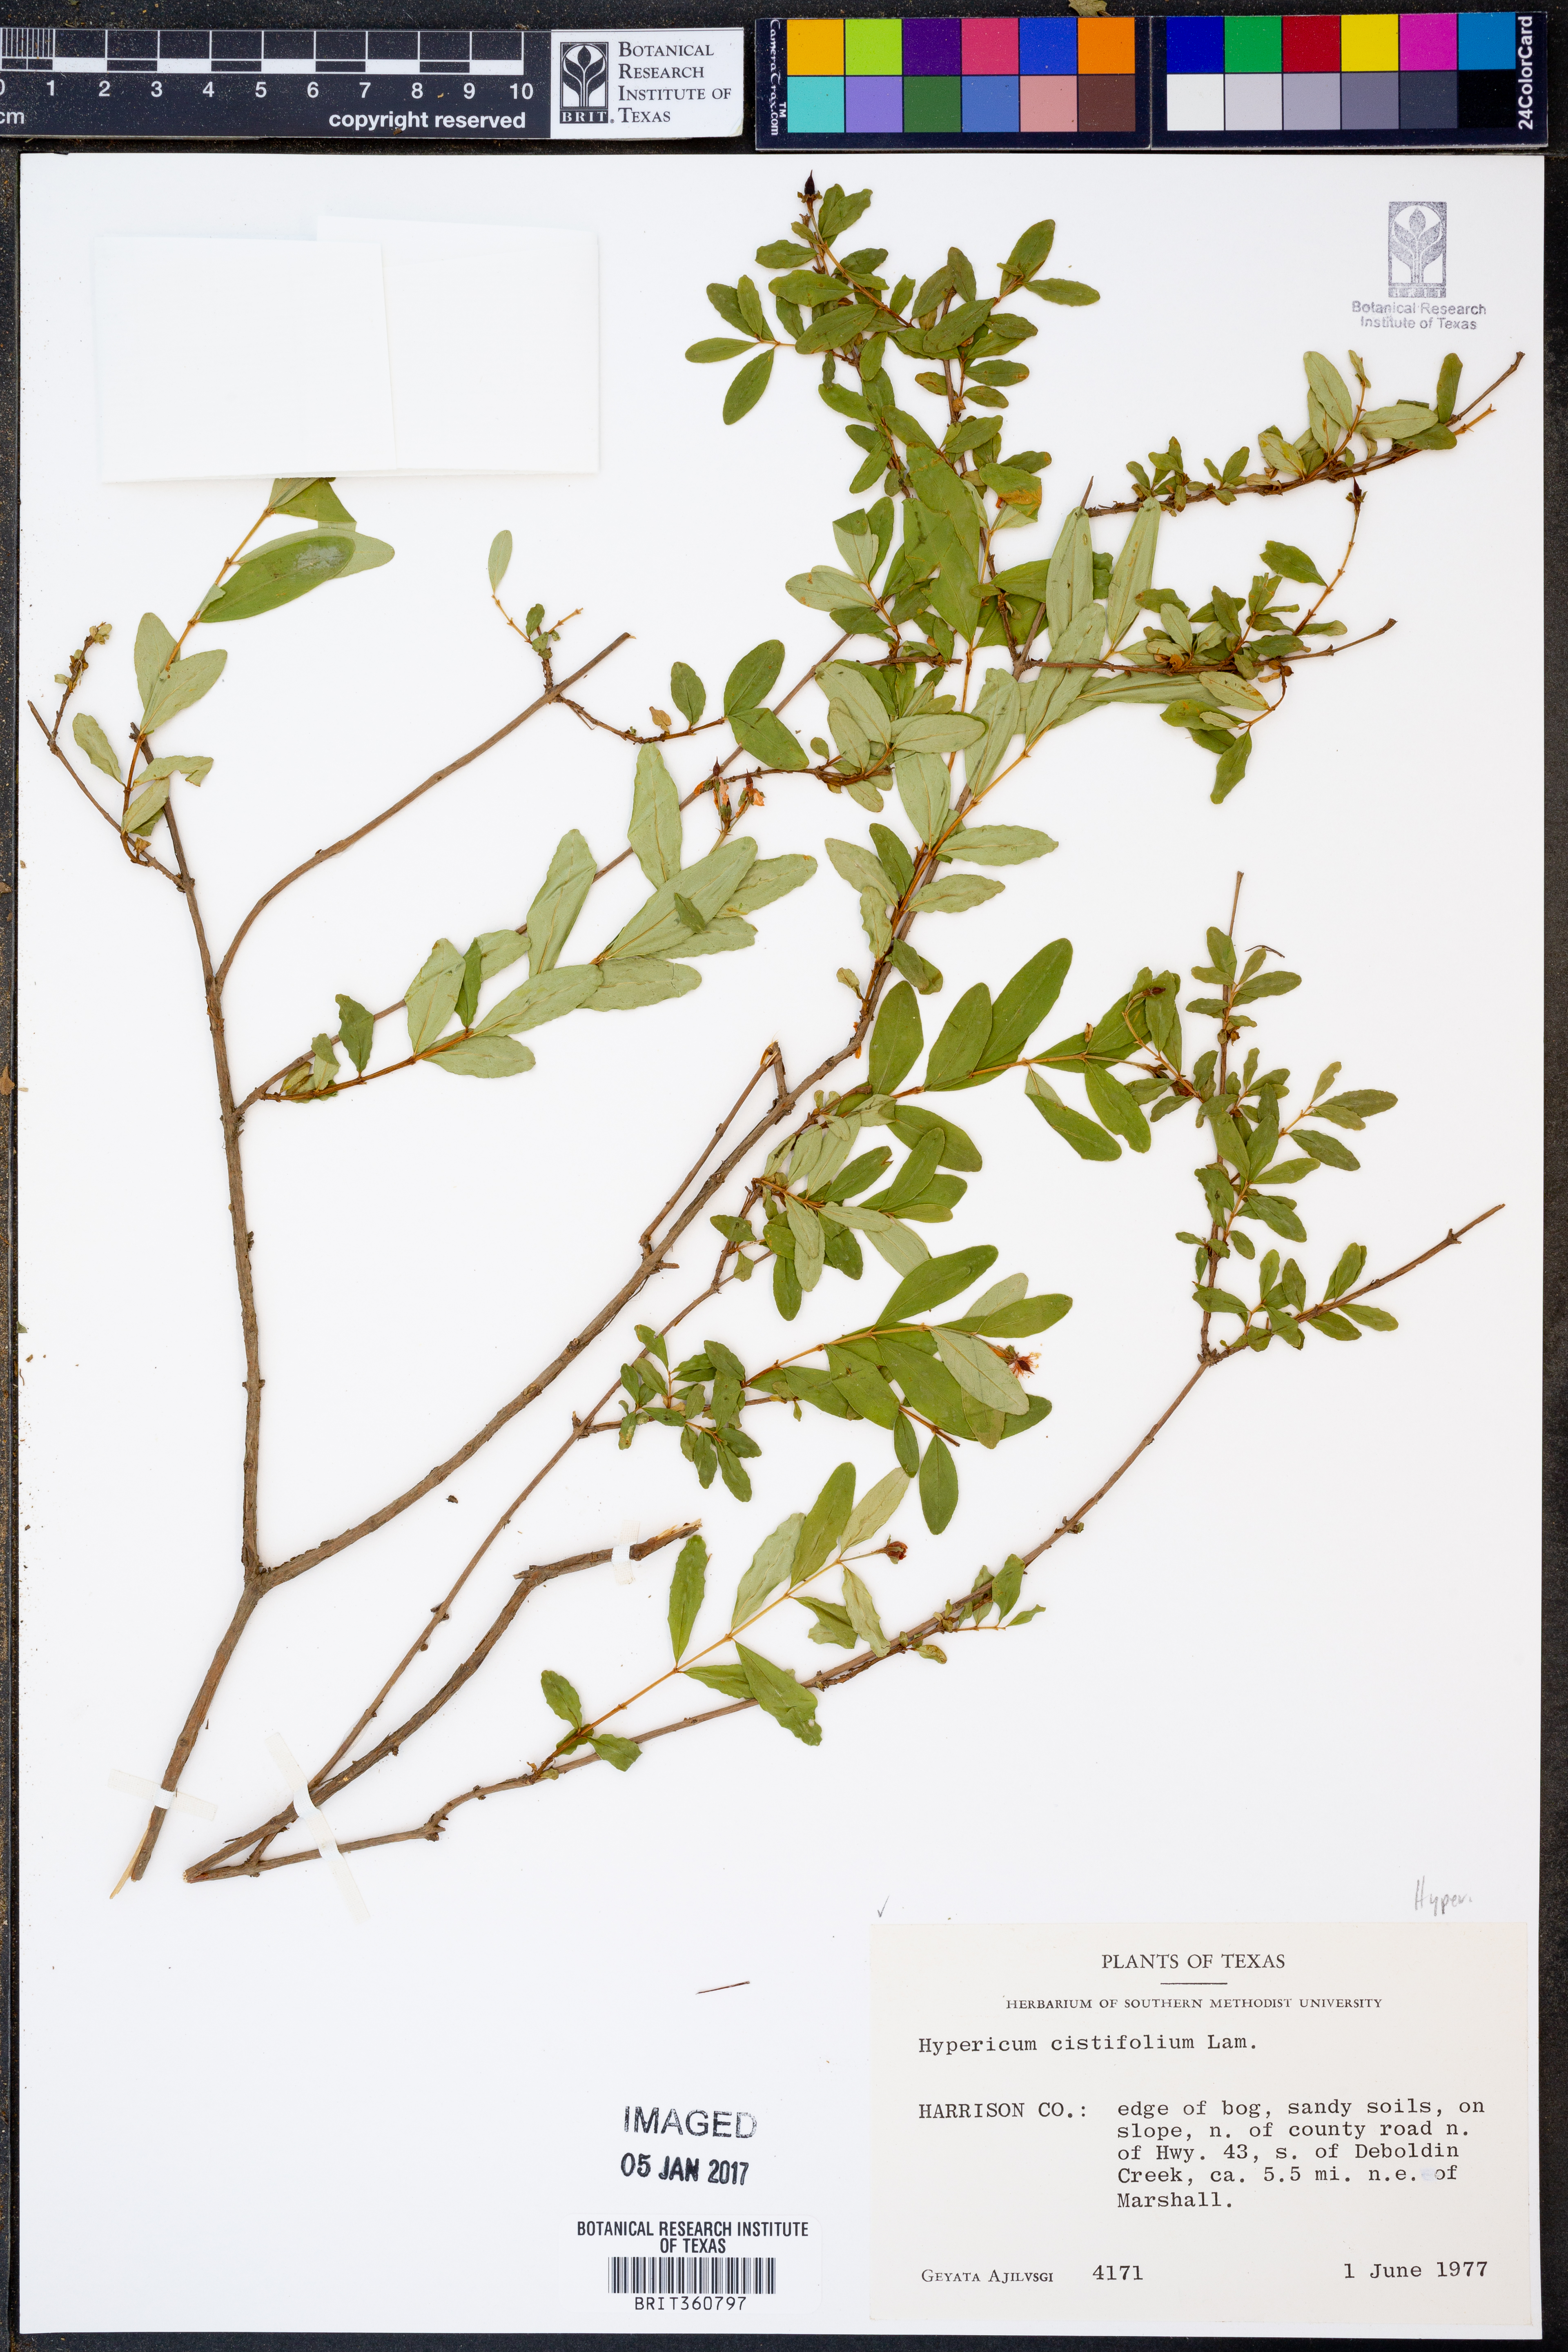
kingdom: Plantae
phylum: Tracheophyta
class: Magnoliopsida
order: Malpighiales
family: Hypericaceae
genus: Hypericum
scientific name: Hypericum cistifolium
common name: Round-pod st. john's-wort
